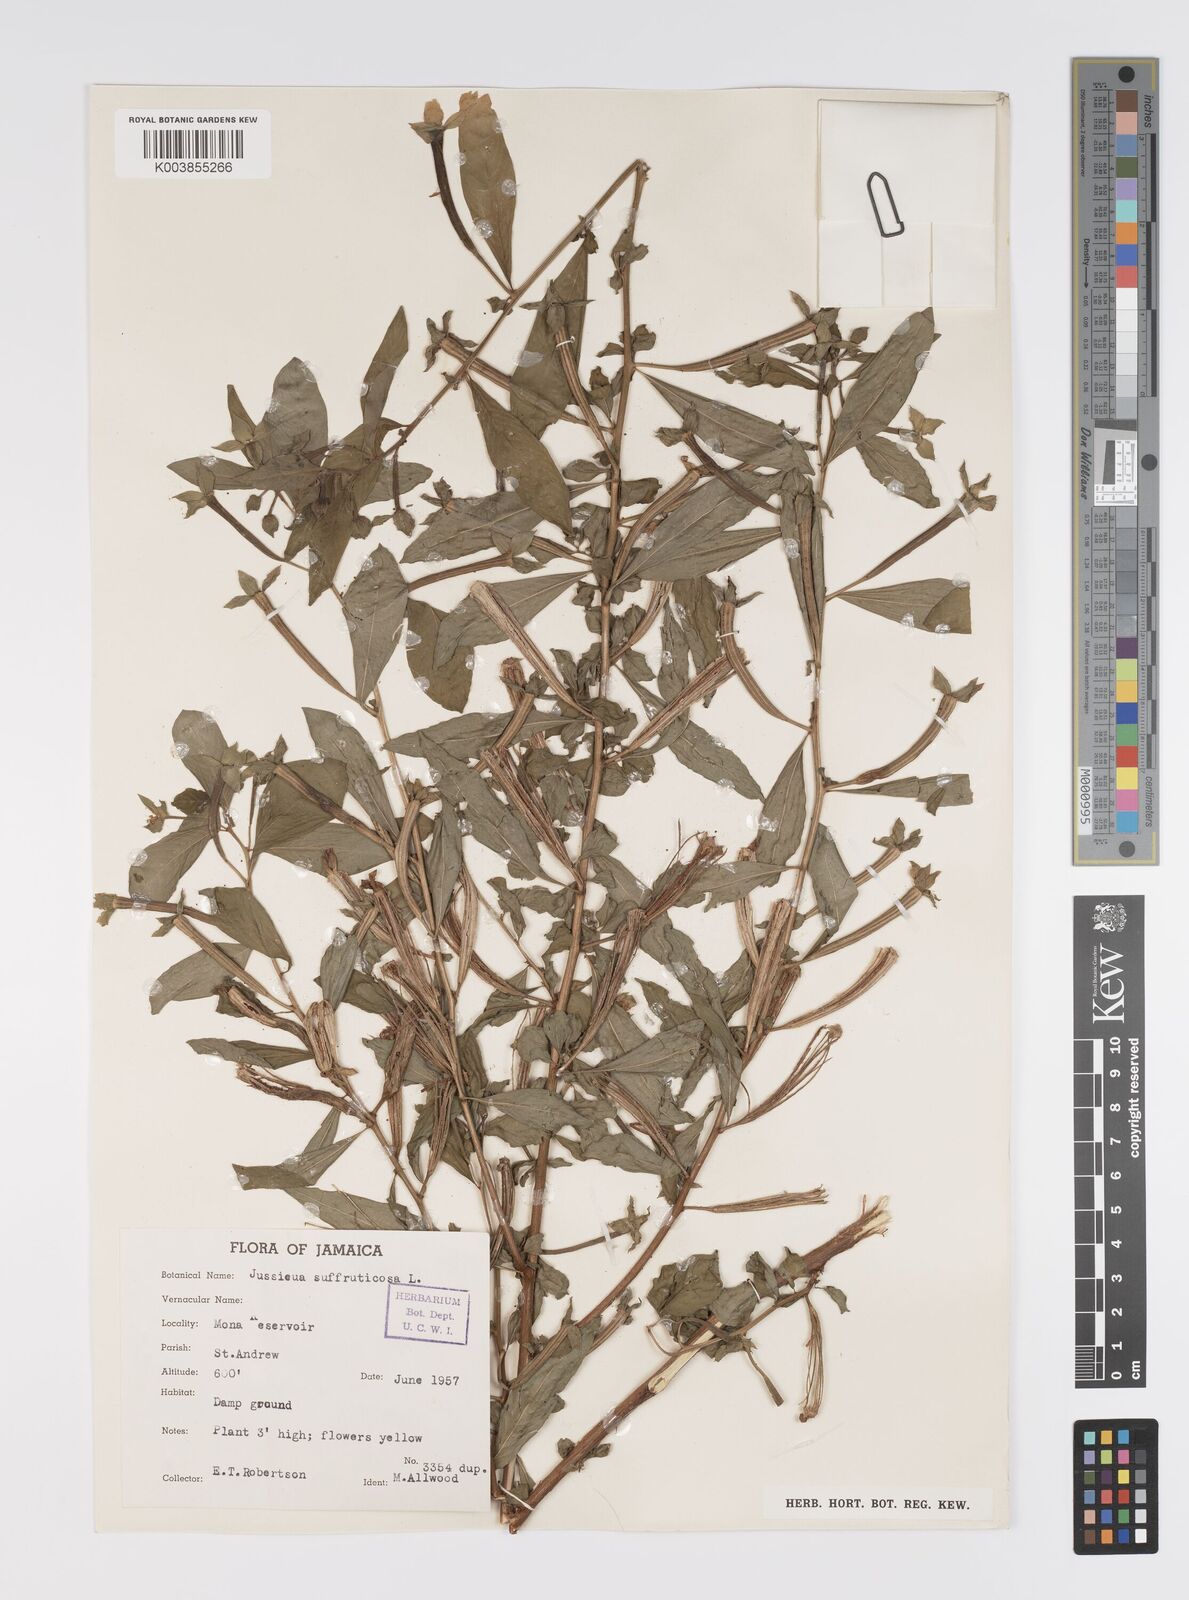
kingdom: Plantae
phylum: Tracheophyta
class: Magnoliopsida
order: Myrtales
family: Onagraceae
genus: Ludwigia
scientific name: Ludwigia octovalvis
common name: Water-primrose
